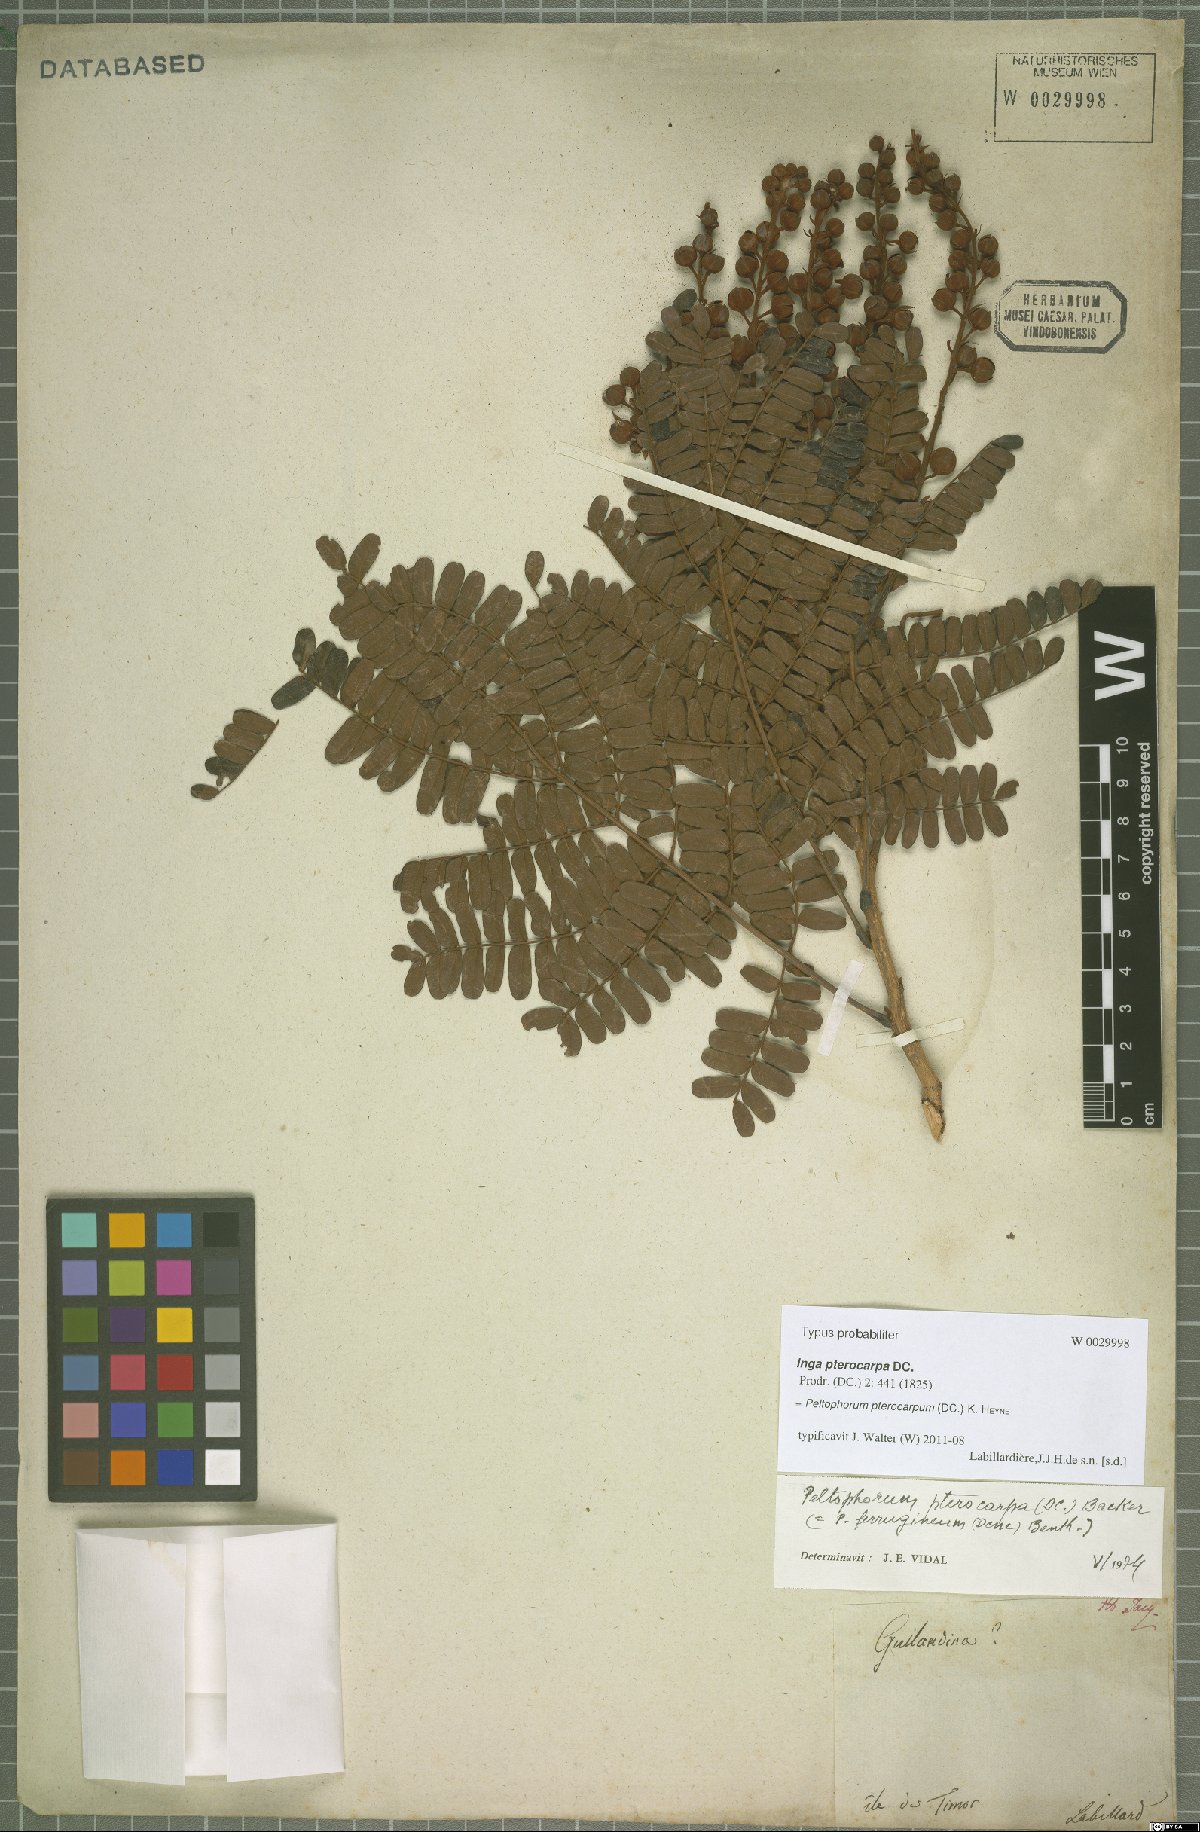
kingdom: Plantae
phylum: Tracheophyta
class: Magnoliopsida
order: Fabales
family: Fabaceae
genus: Peltophorum
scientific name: Peltophorum pterocarpum
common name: Yellow flame
